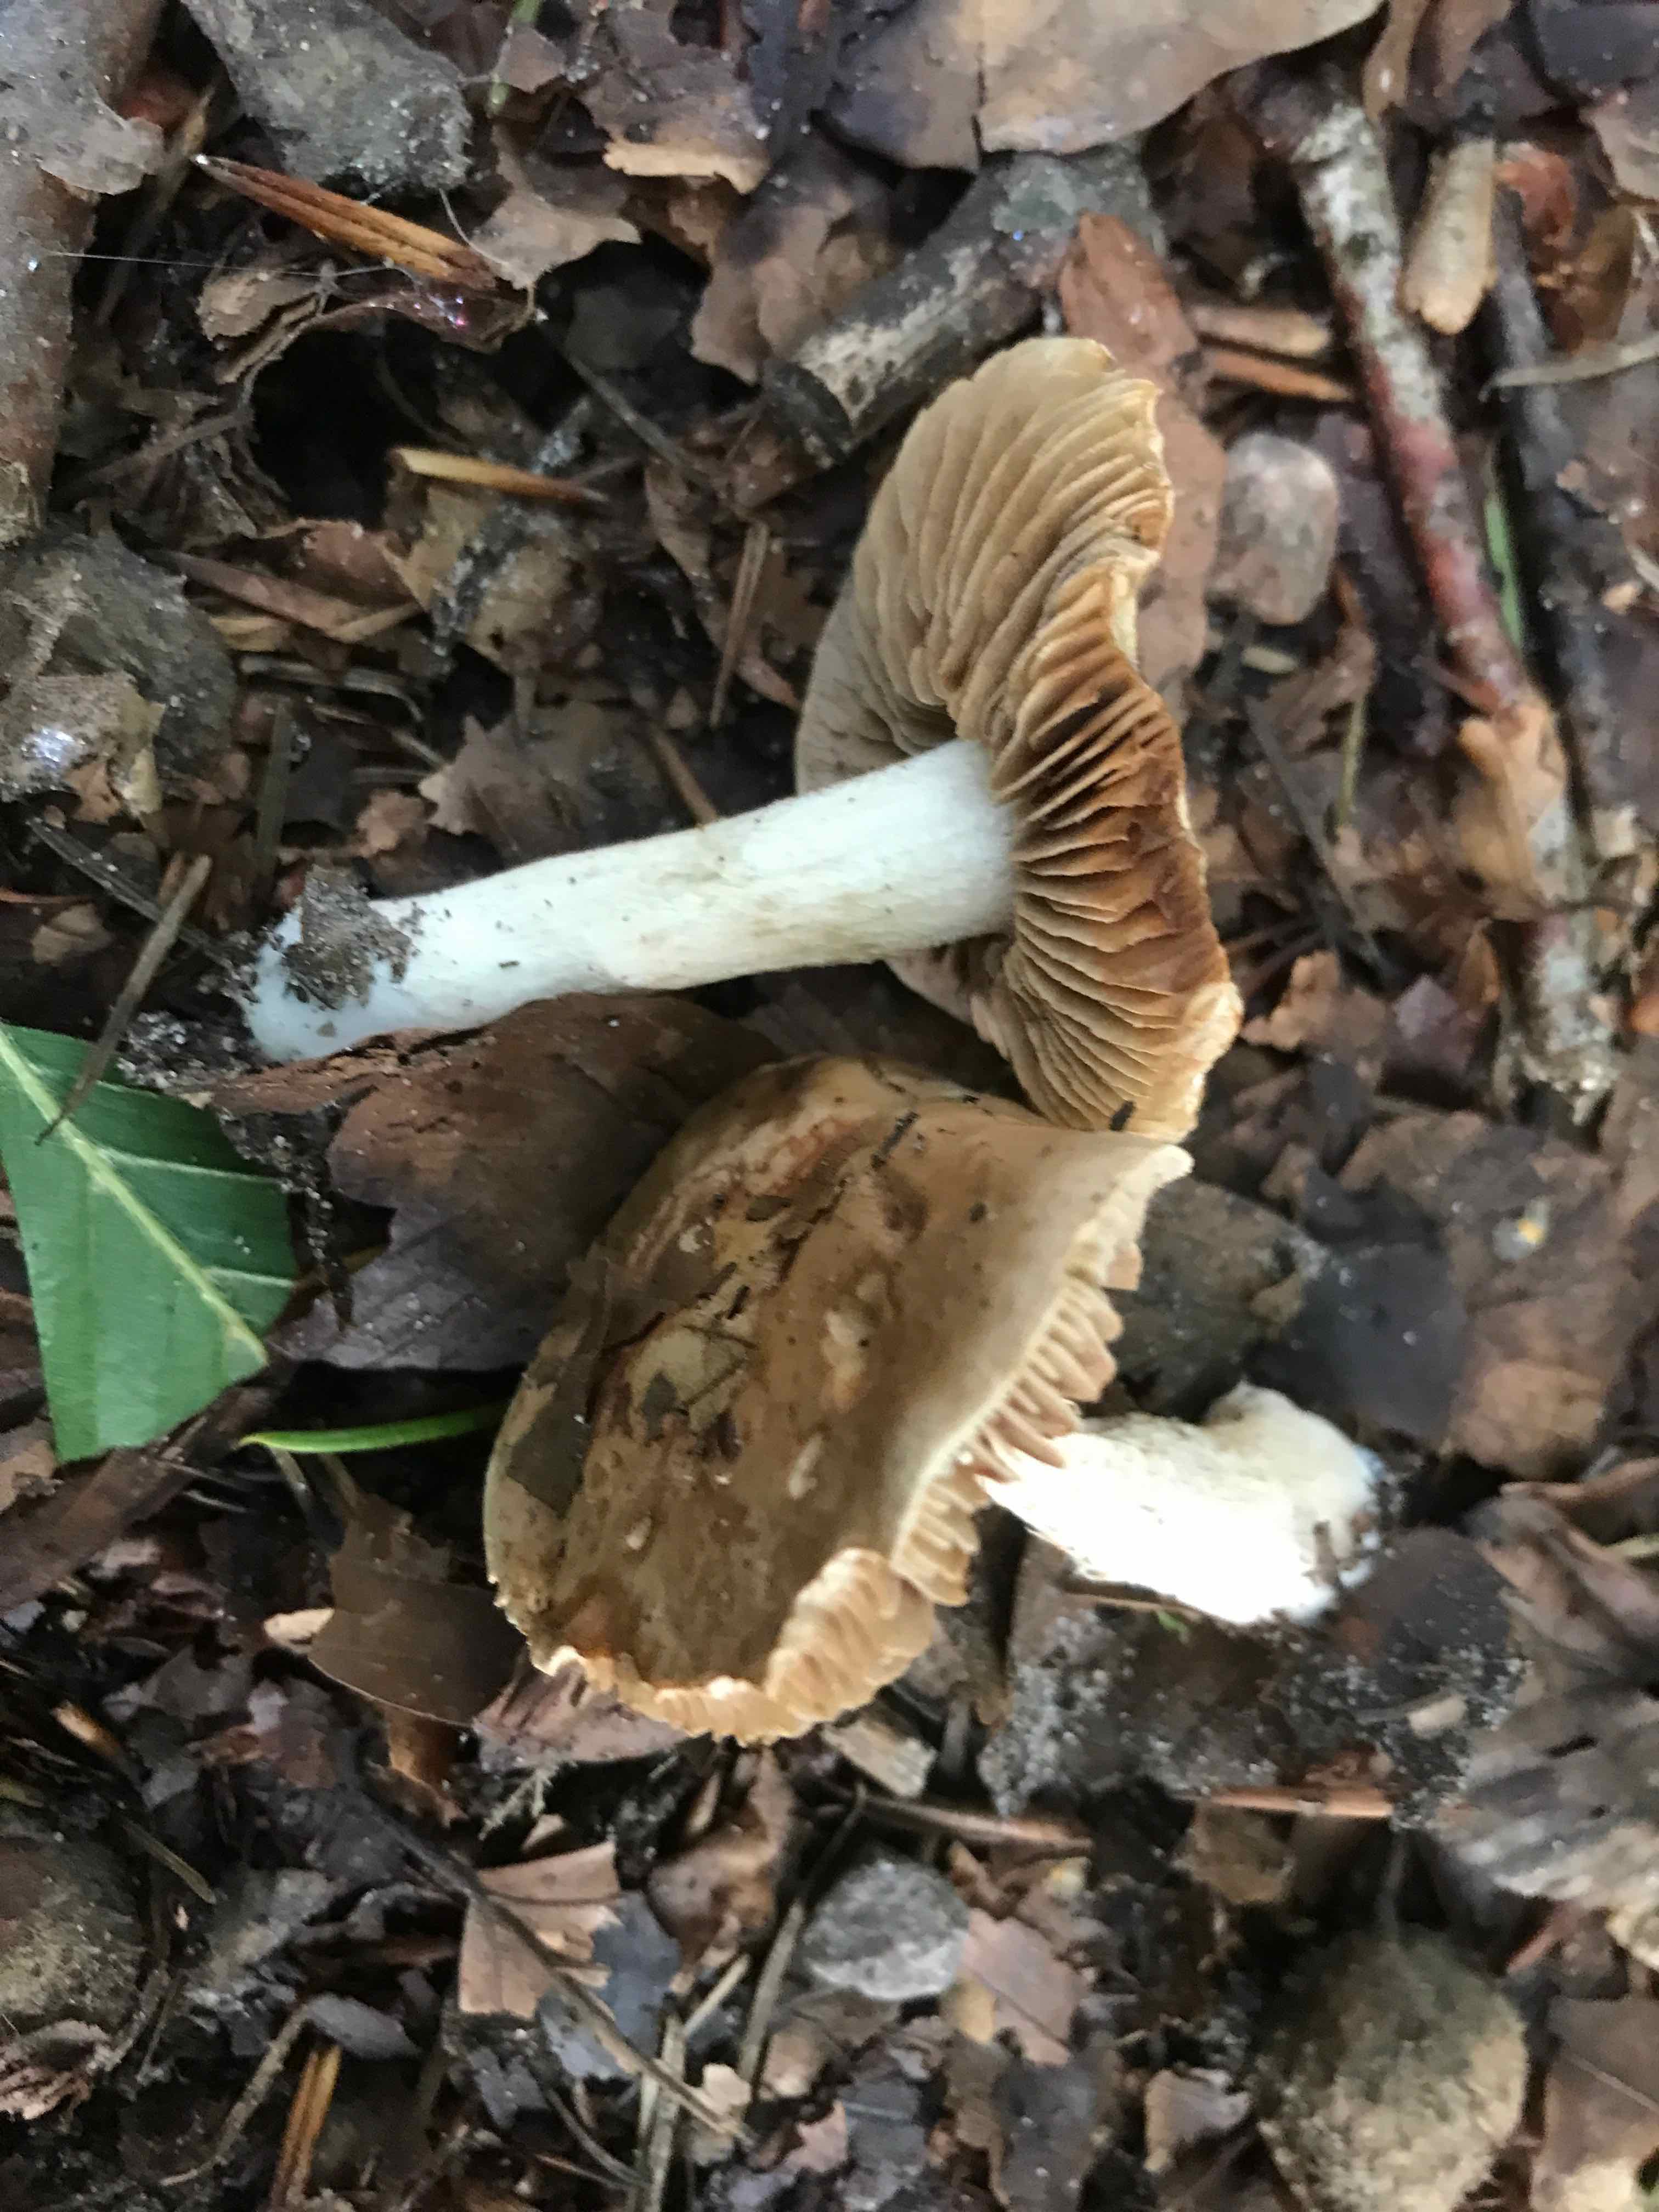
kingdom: Fungi
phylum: Basidiomycota
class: Agaricomycetes
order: Agaricales
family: Hymenogastraceae
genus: Hebeloma
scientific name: Hebeloma sinapizans
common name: ræddike-tåreblad
